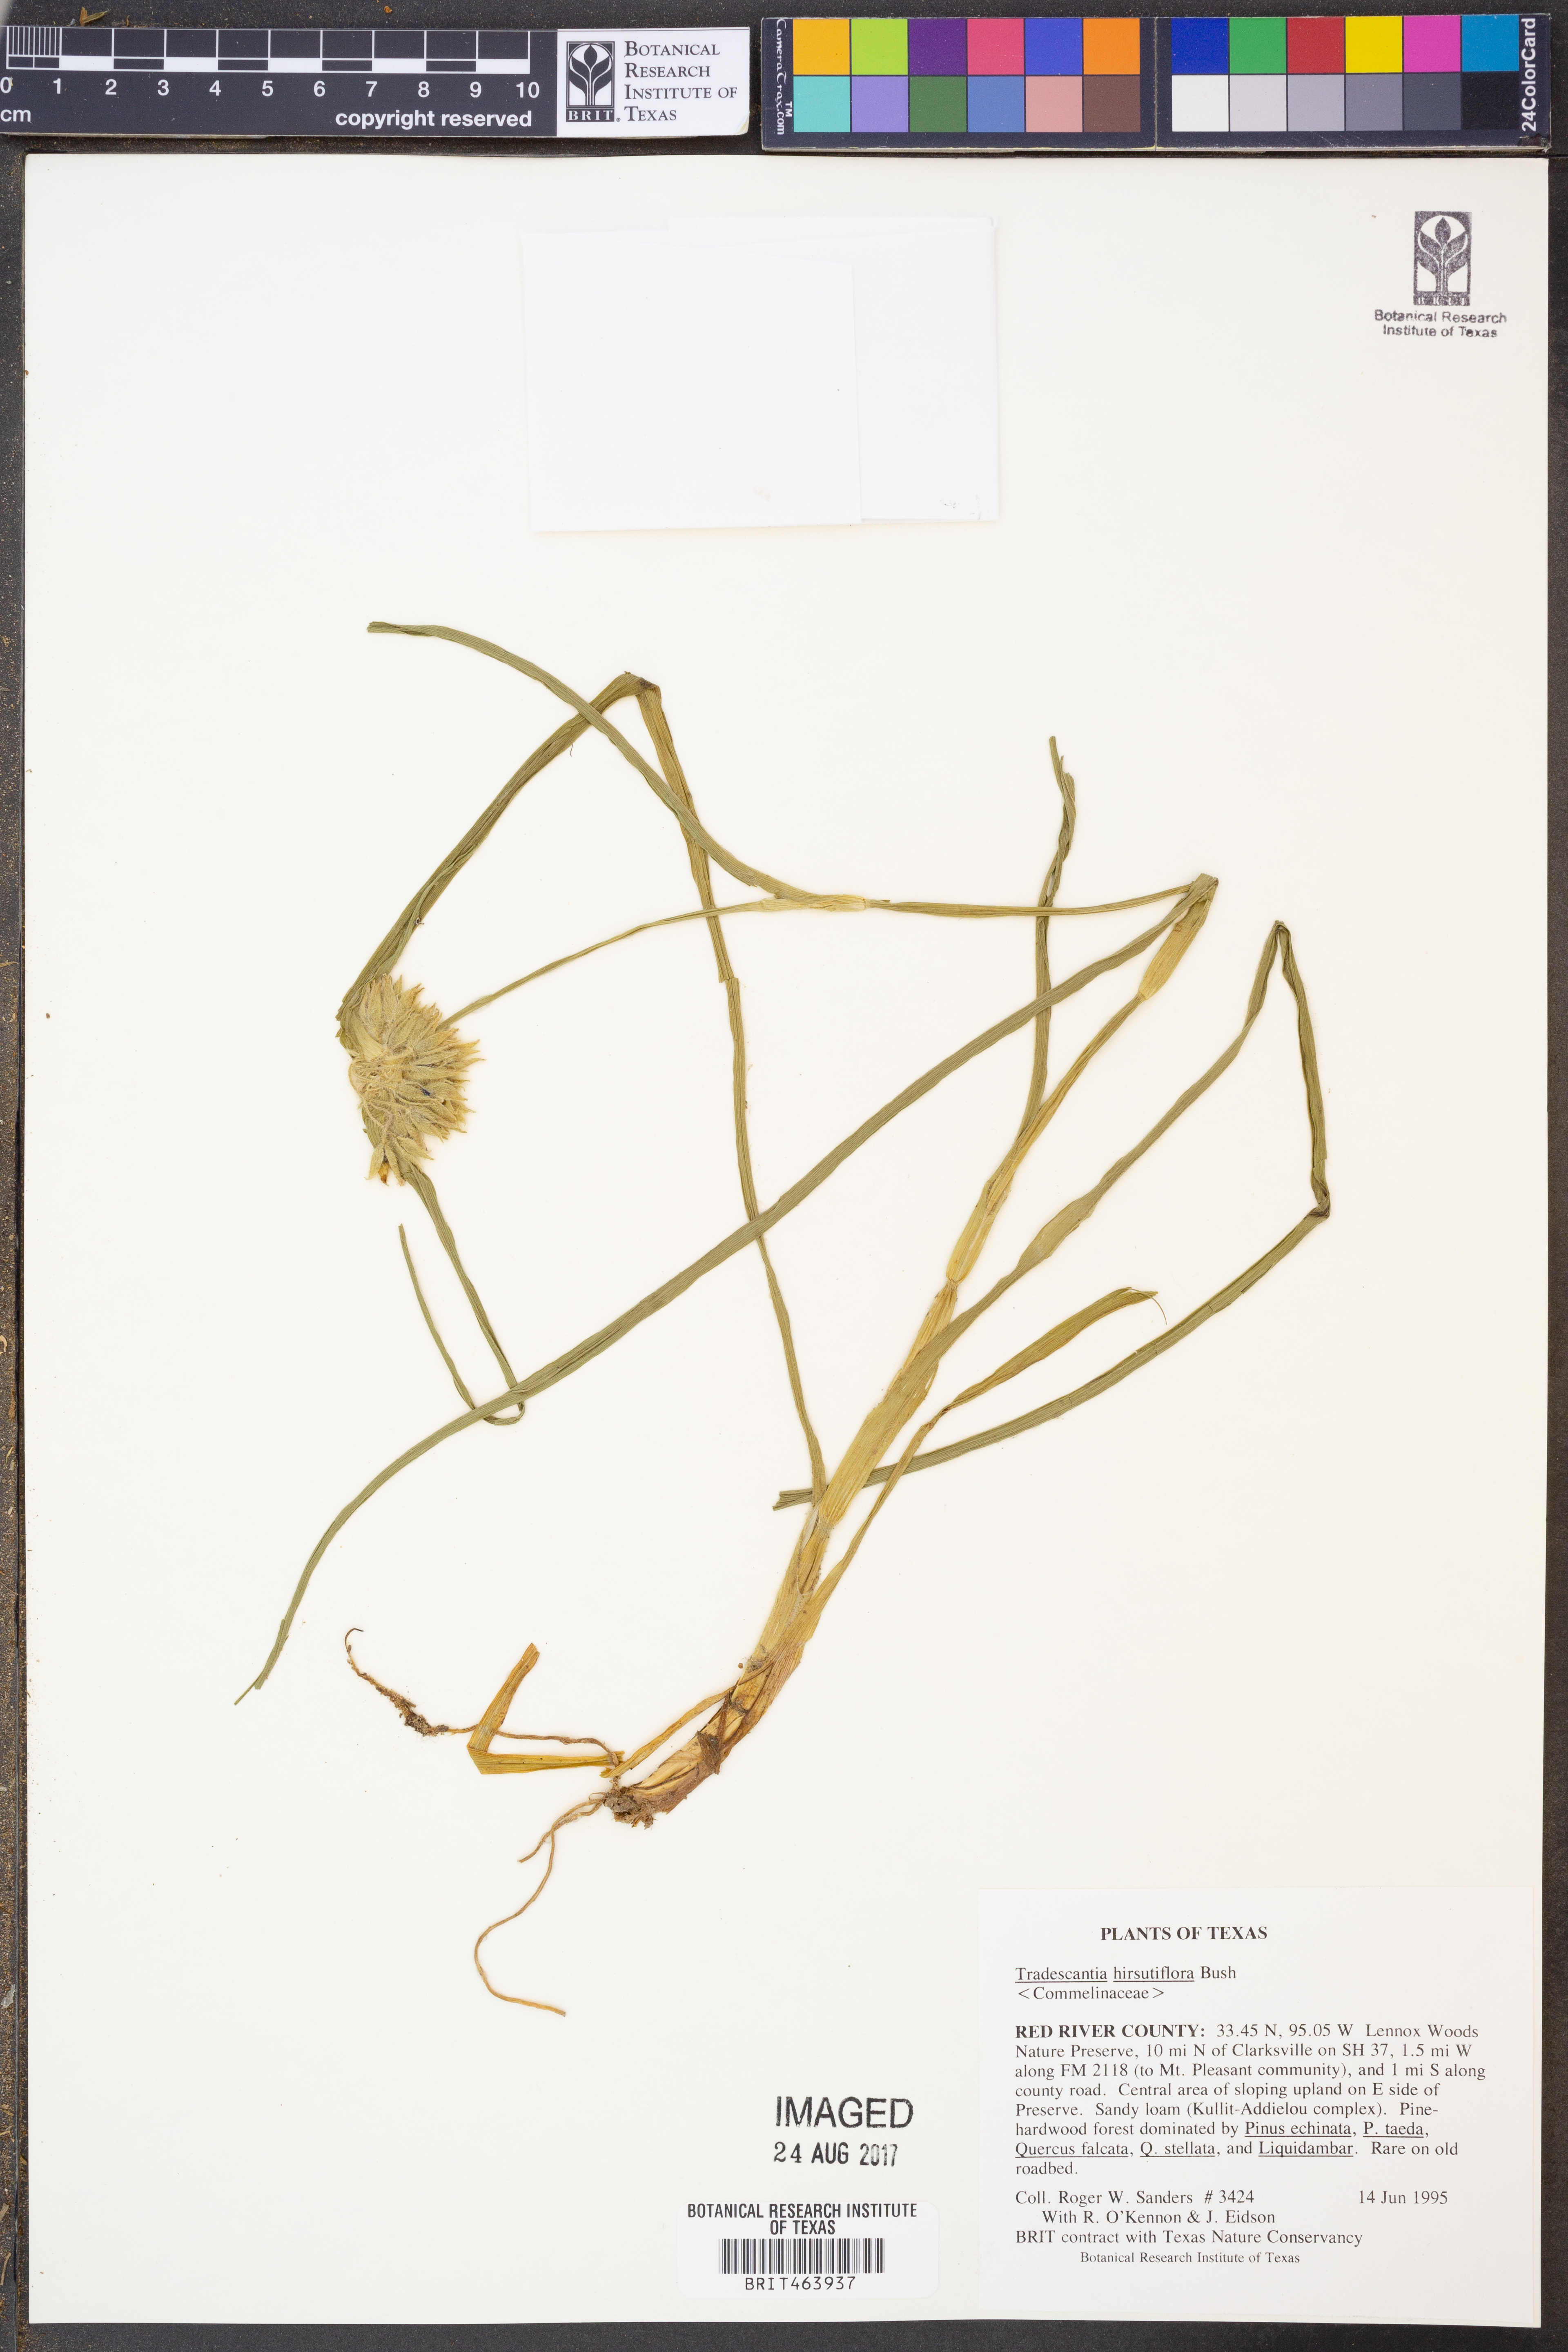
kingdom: Plantae
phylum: Tracheophyta
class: Liliopsida
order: Commelinales
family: Commelinaceae
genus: Tradescantia
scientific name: Tradescantia hirsutiflora
